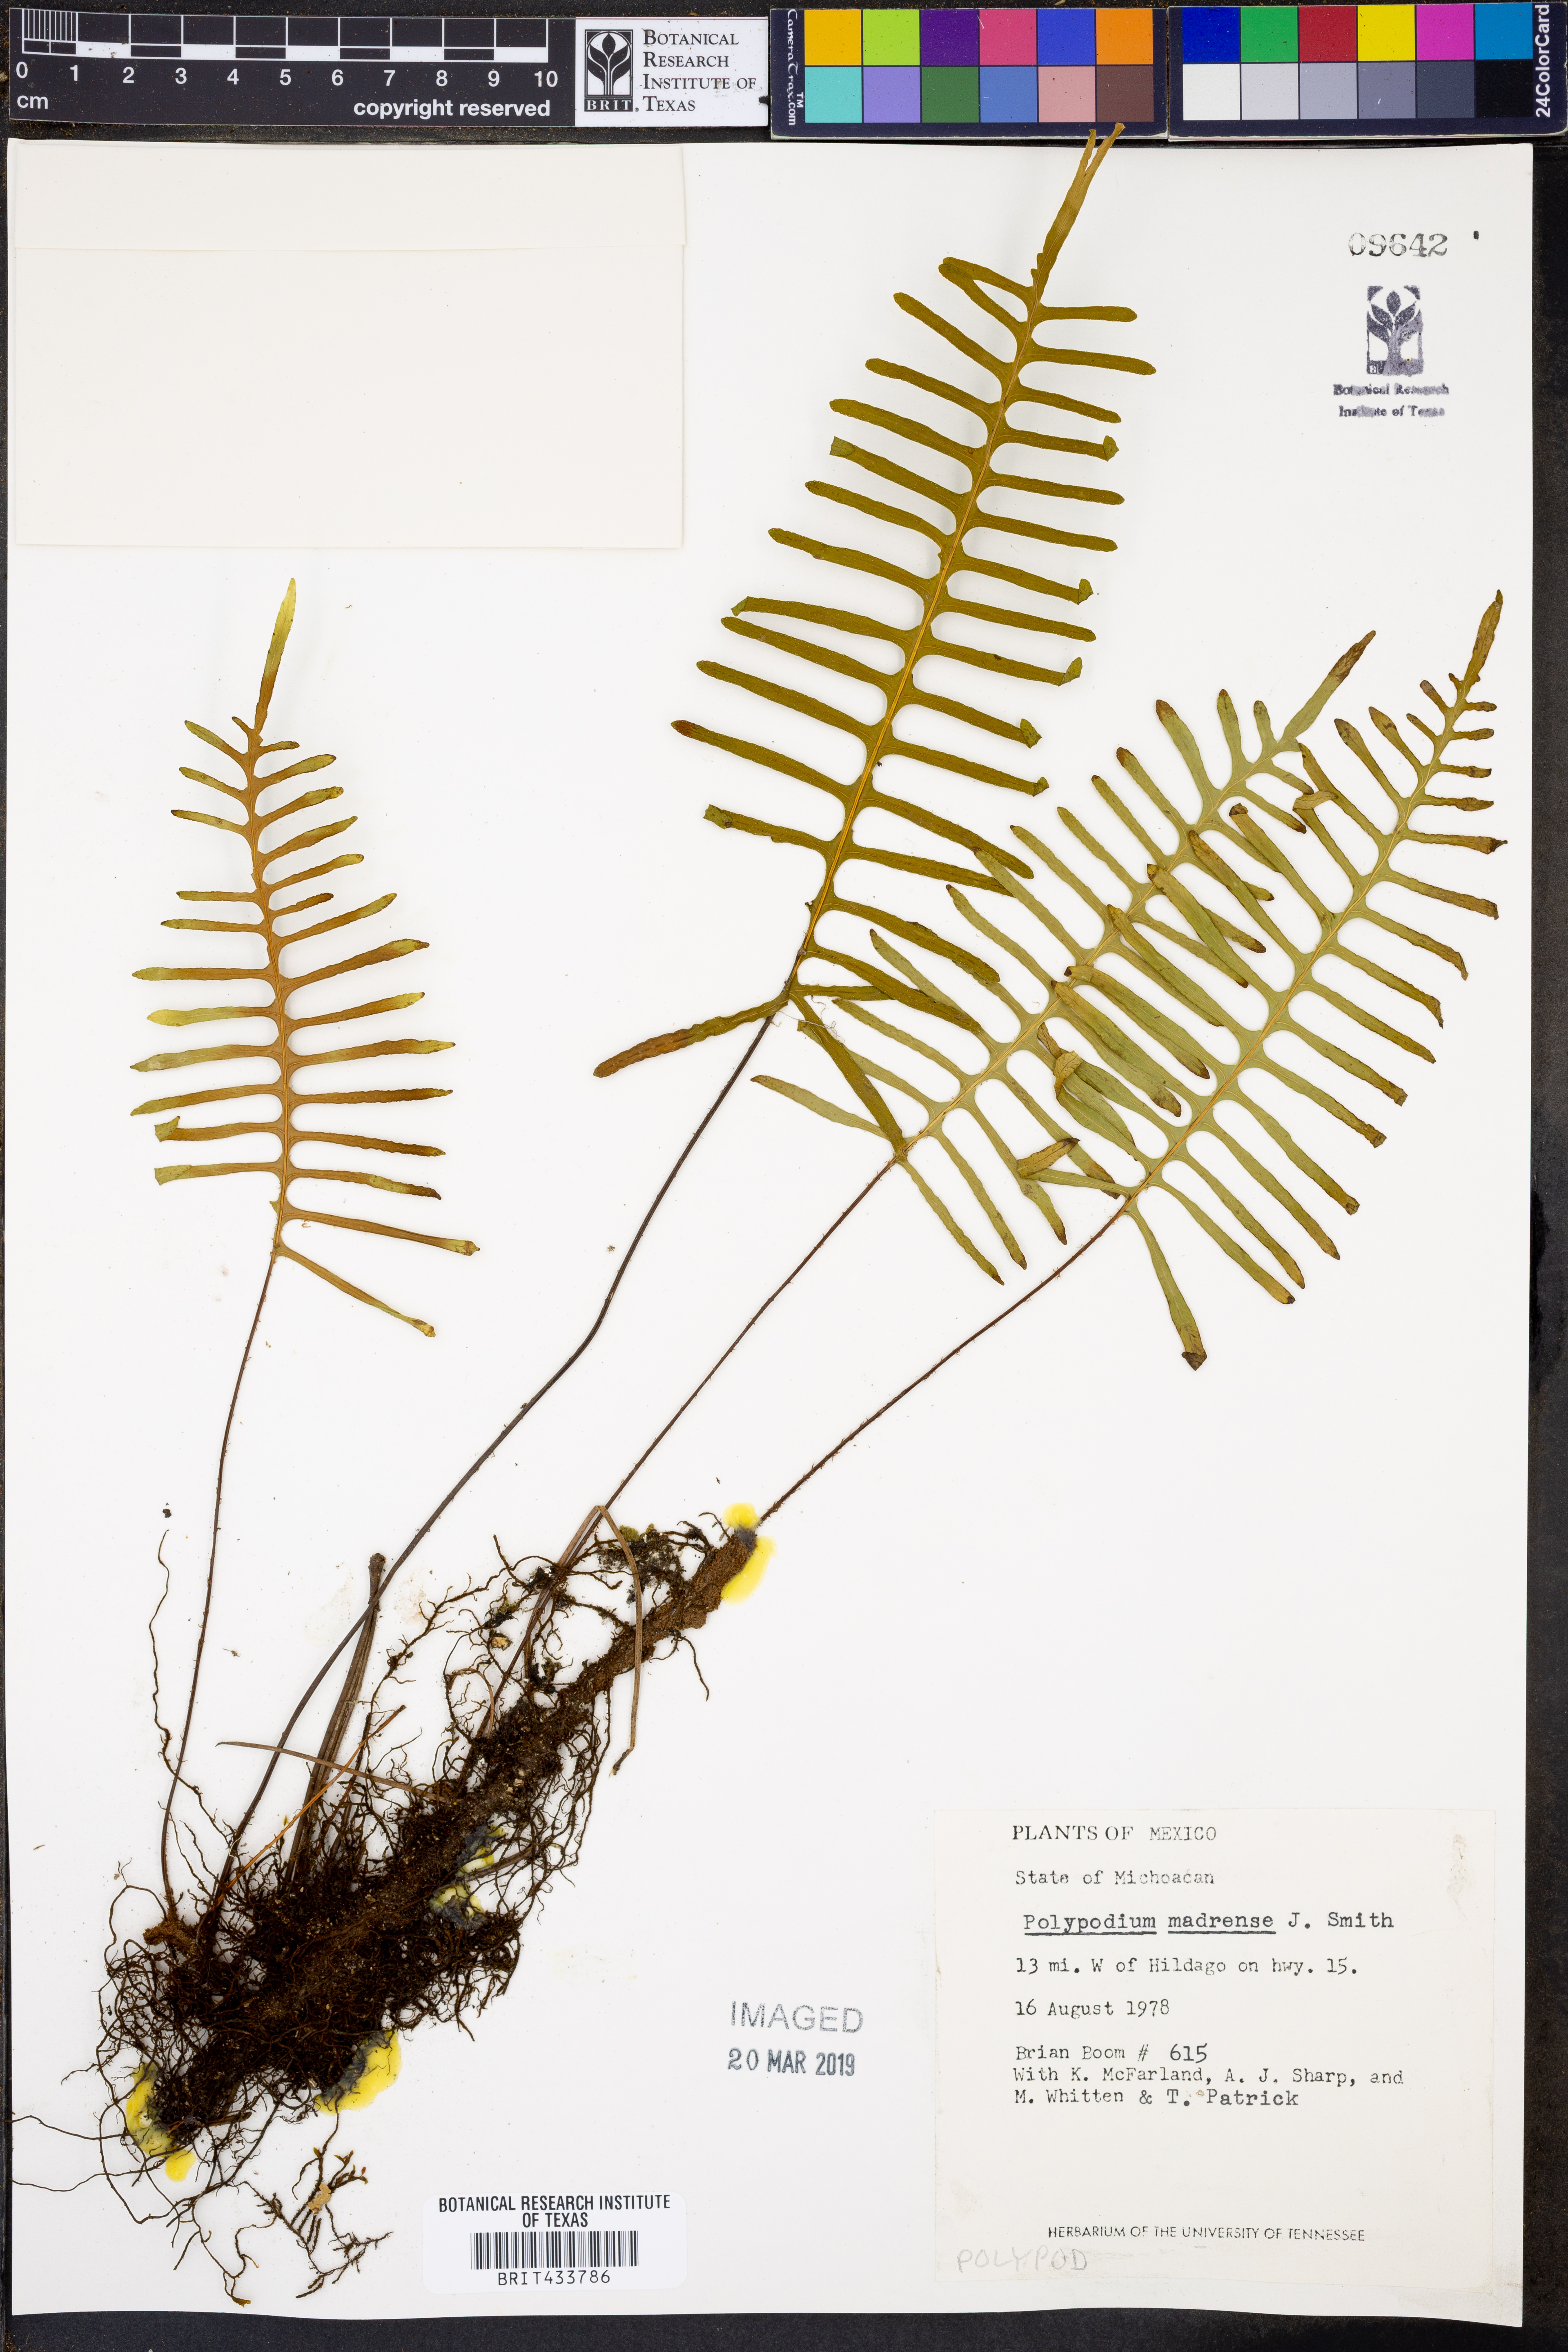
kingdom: Plantae
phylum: Tracheophyta
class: Polypodiopsida
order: Polypodiales
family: Polypodiaceae
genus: Pleopeltis
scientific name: Pleopeltis madrensis
